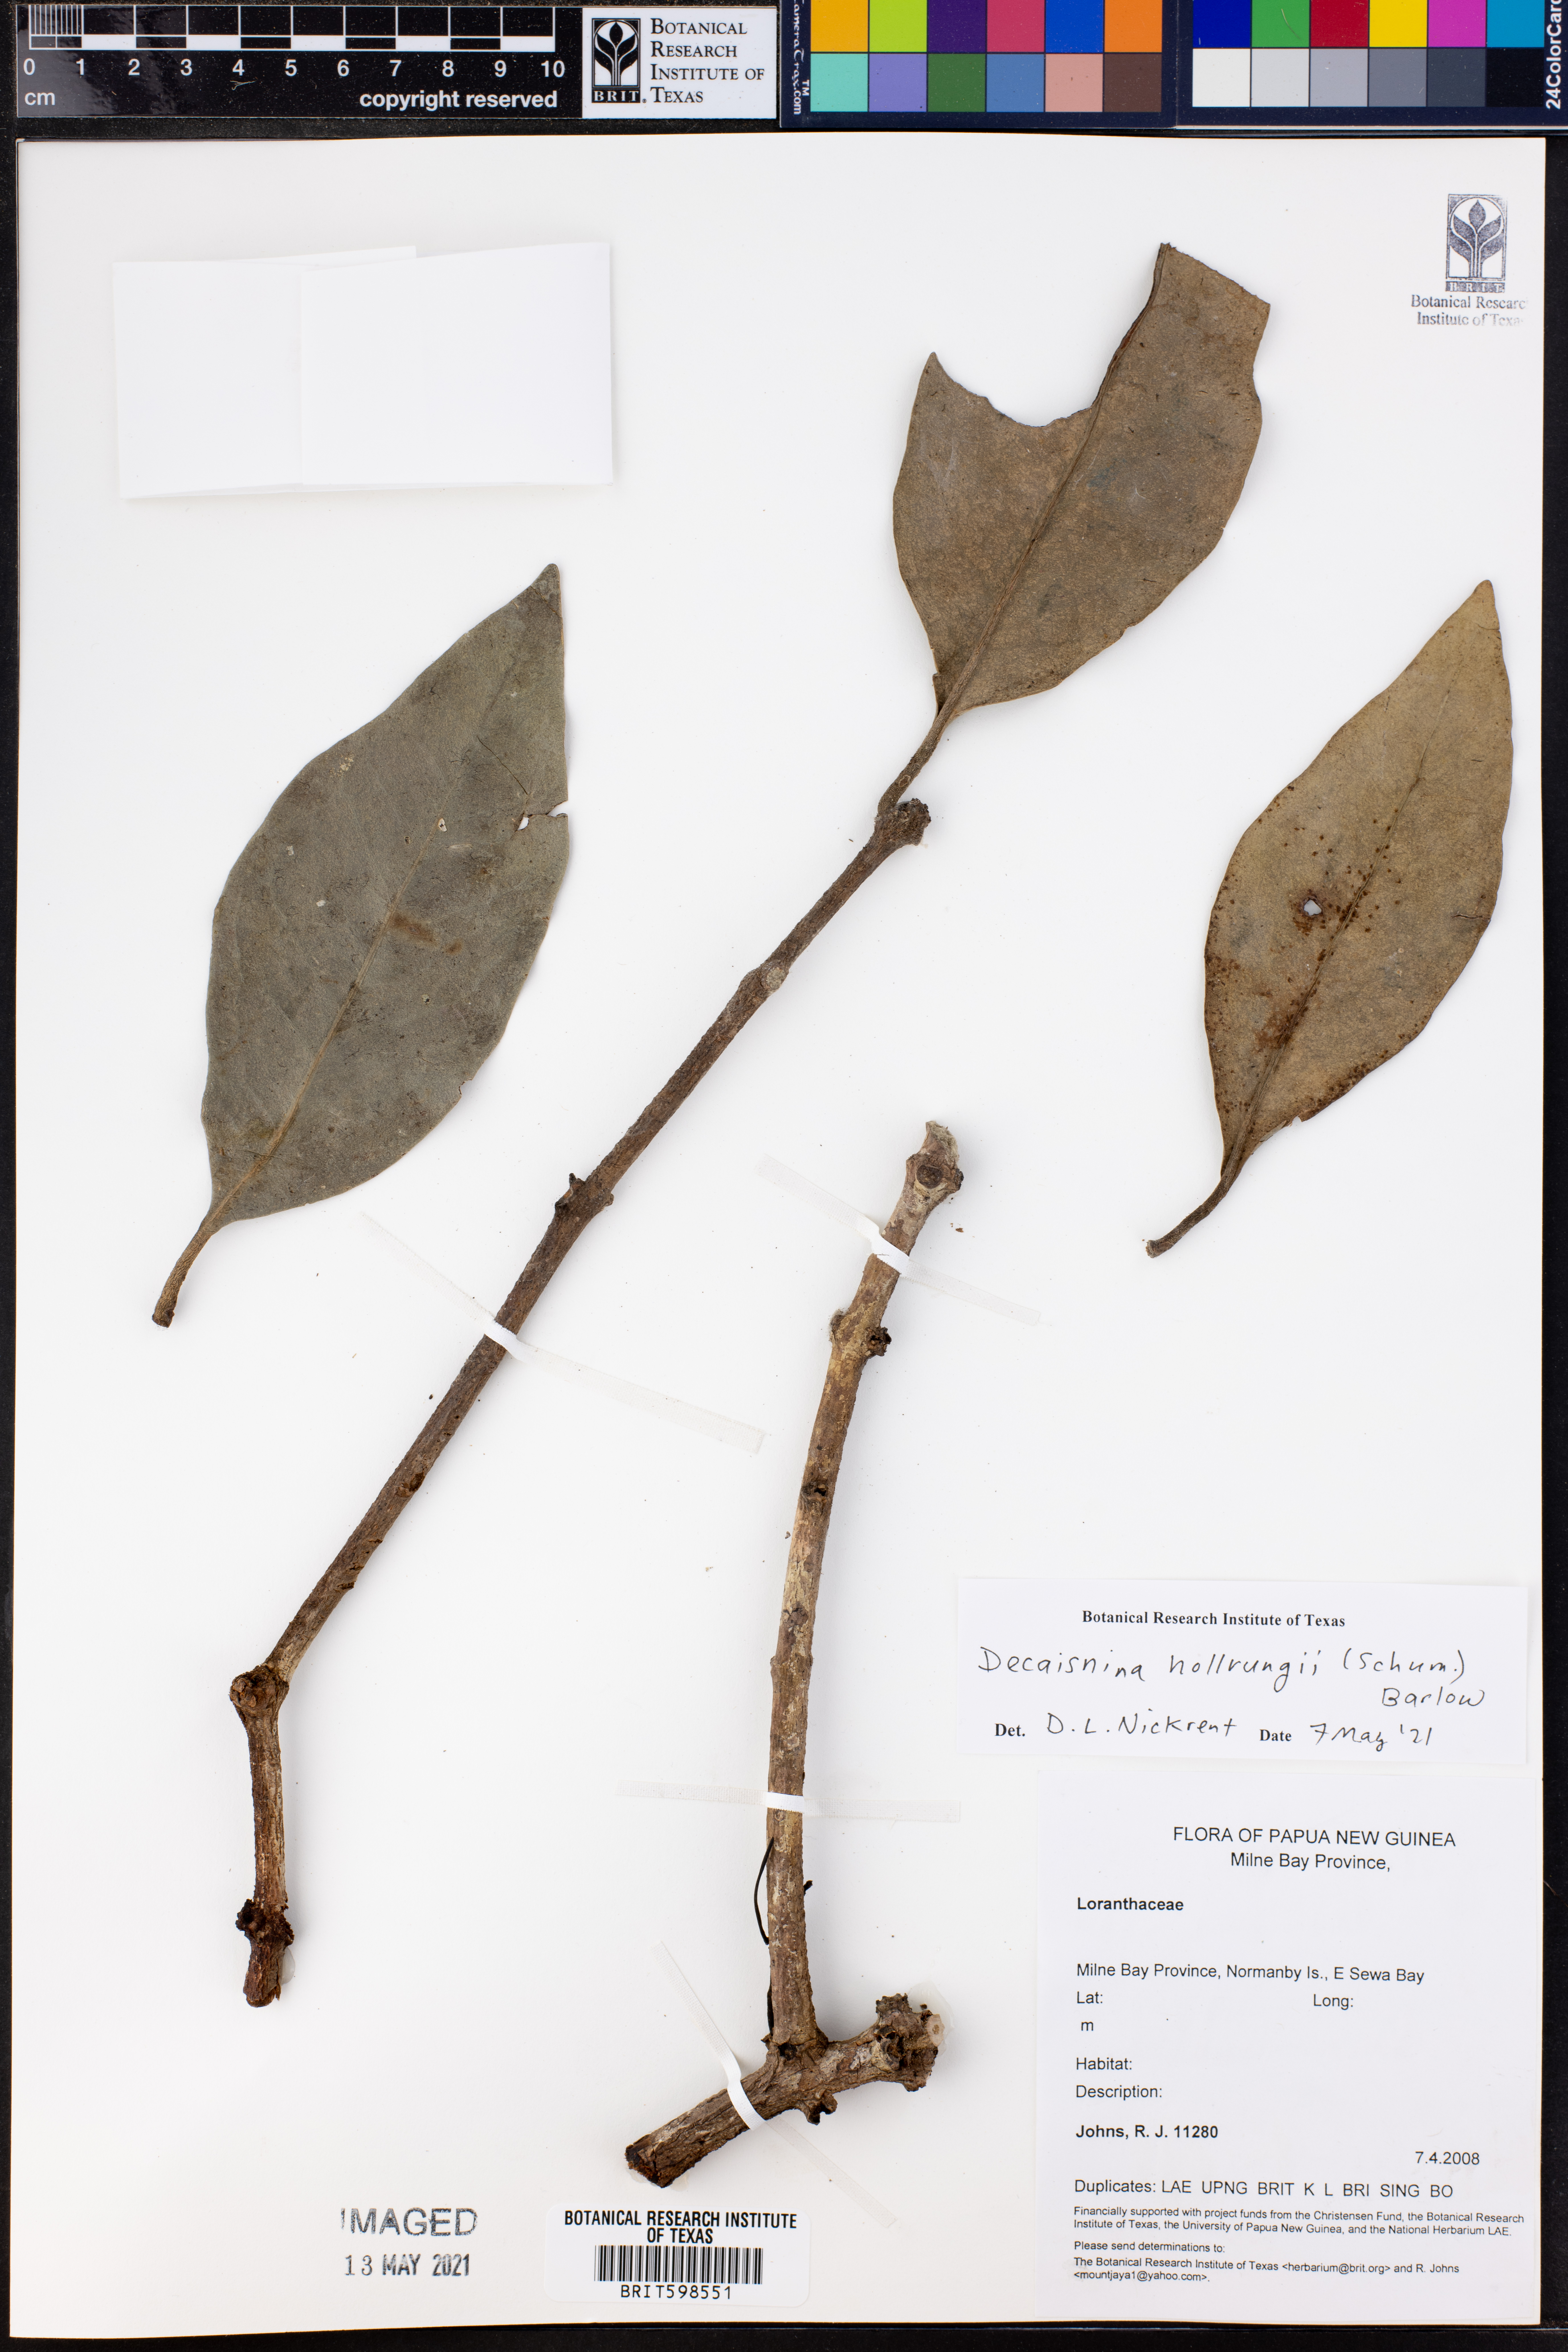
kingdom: Plantae
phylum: Tracheophyta
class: Magnoliopsida
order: Santalales
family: Loranthaceae
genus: Decaisnina
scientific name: Decaisnina hollrungii
